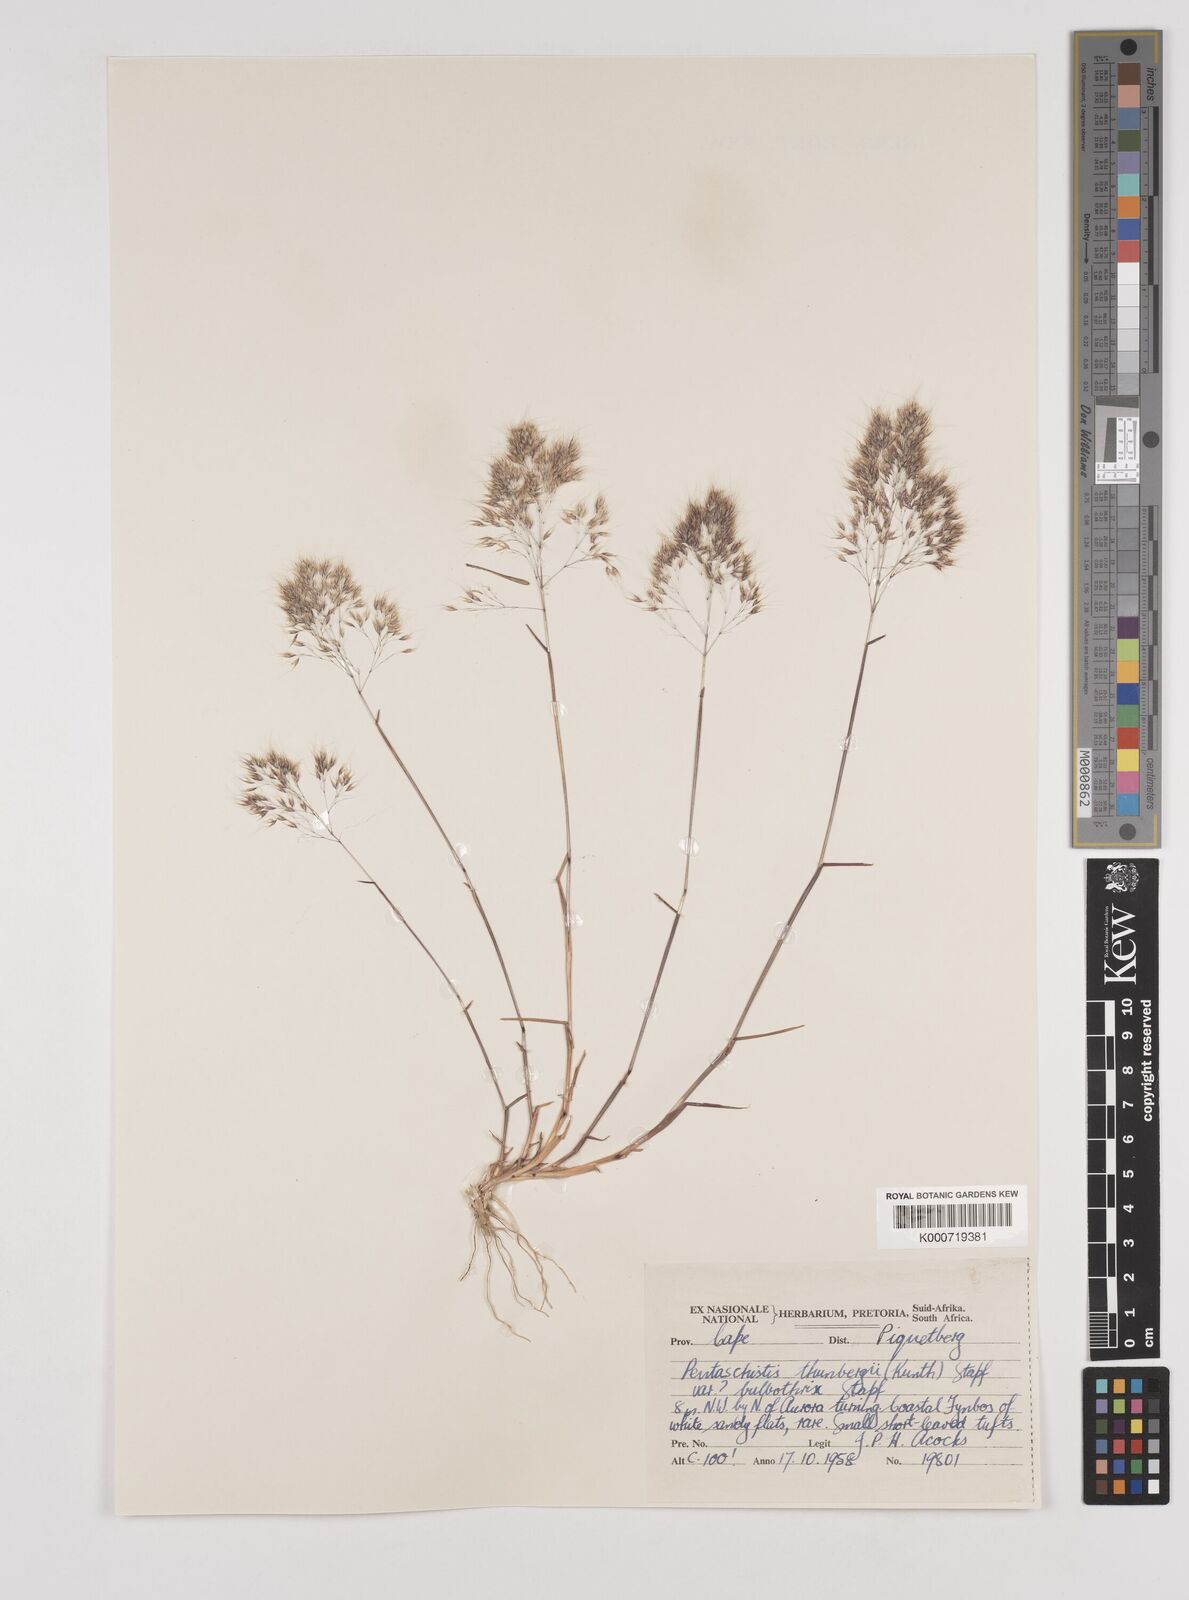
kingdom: Plantae
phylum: Tracheophyta
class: Liliopsida
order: Poales
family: Poaceae
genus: Pentameris
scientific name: Pentameris triseta
